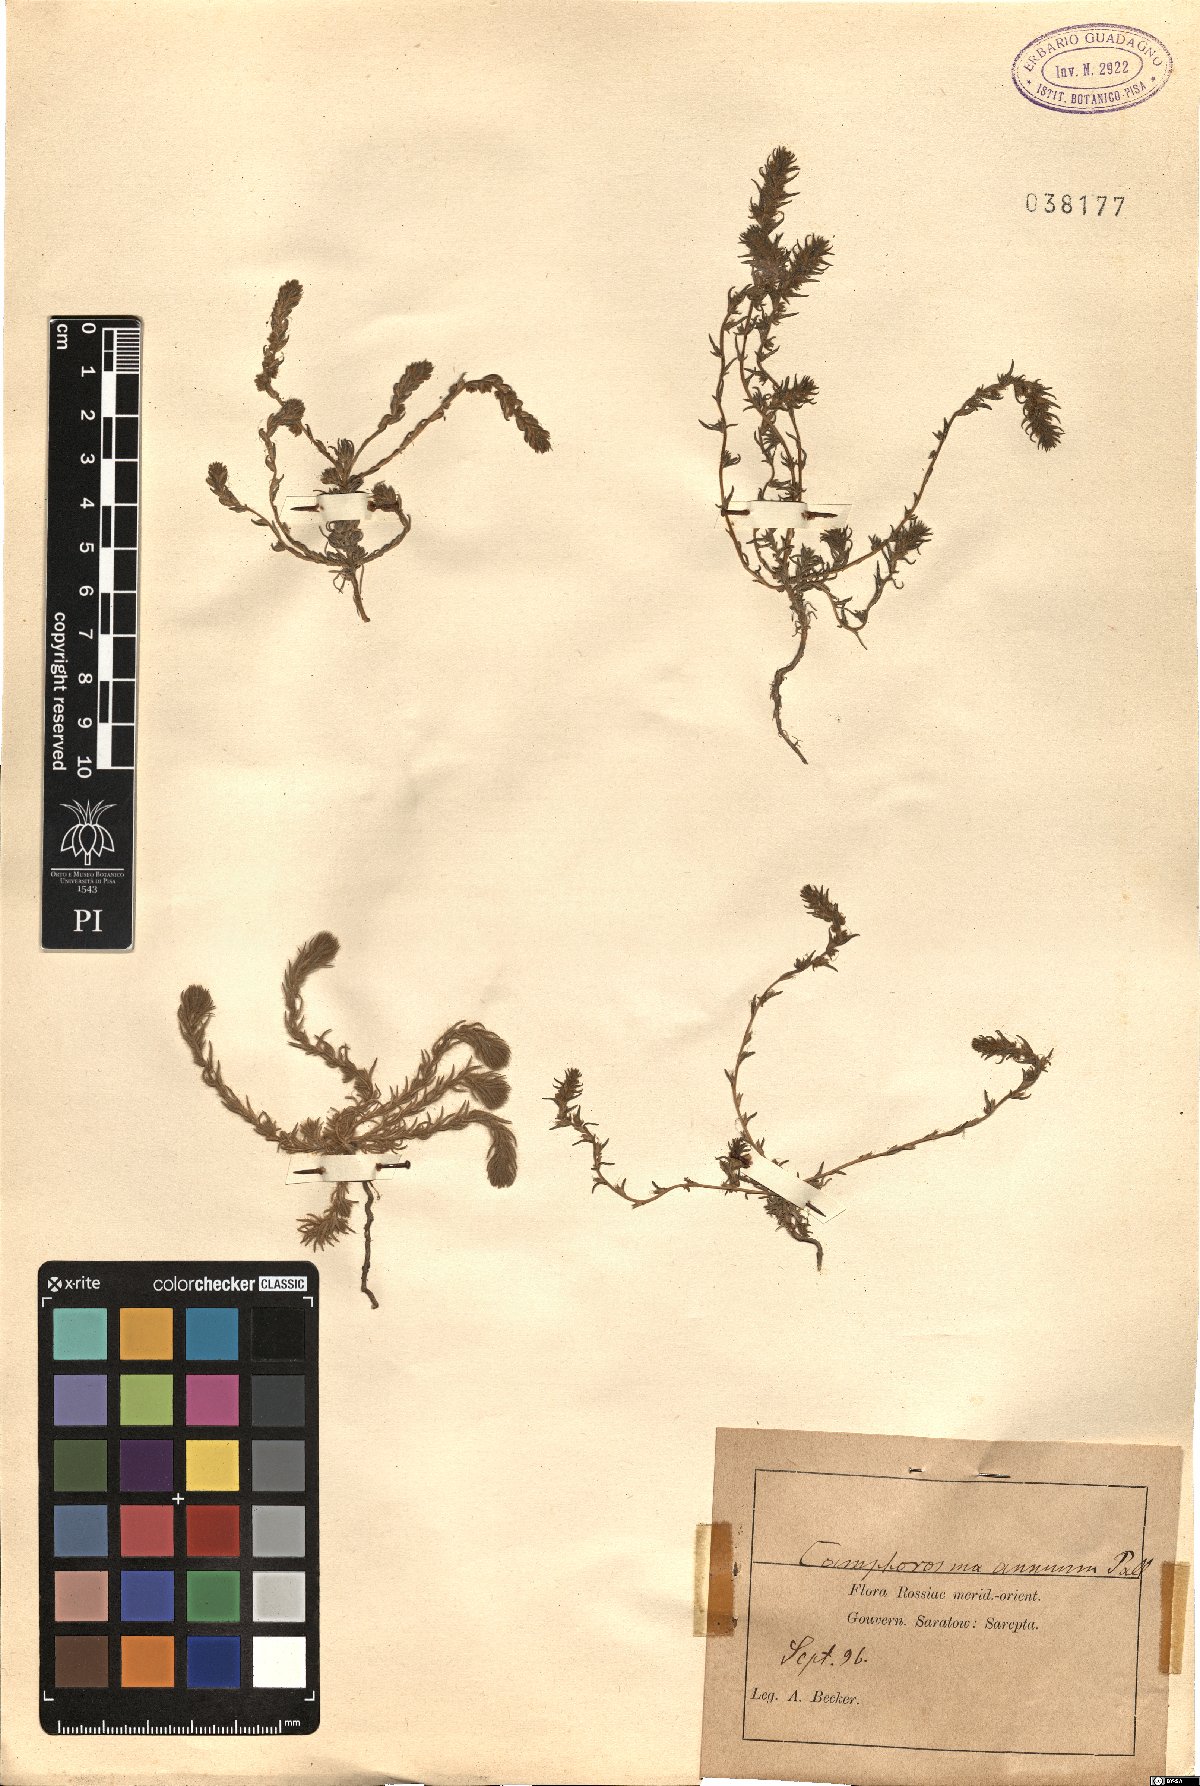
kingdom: Plantae
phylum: Tracheophyta
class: Magnoliopsida
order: Caryophyllales
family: Amaranthaceae
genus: Camphorosma
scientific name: Camphorosma annua
